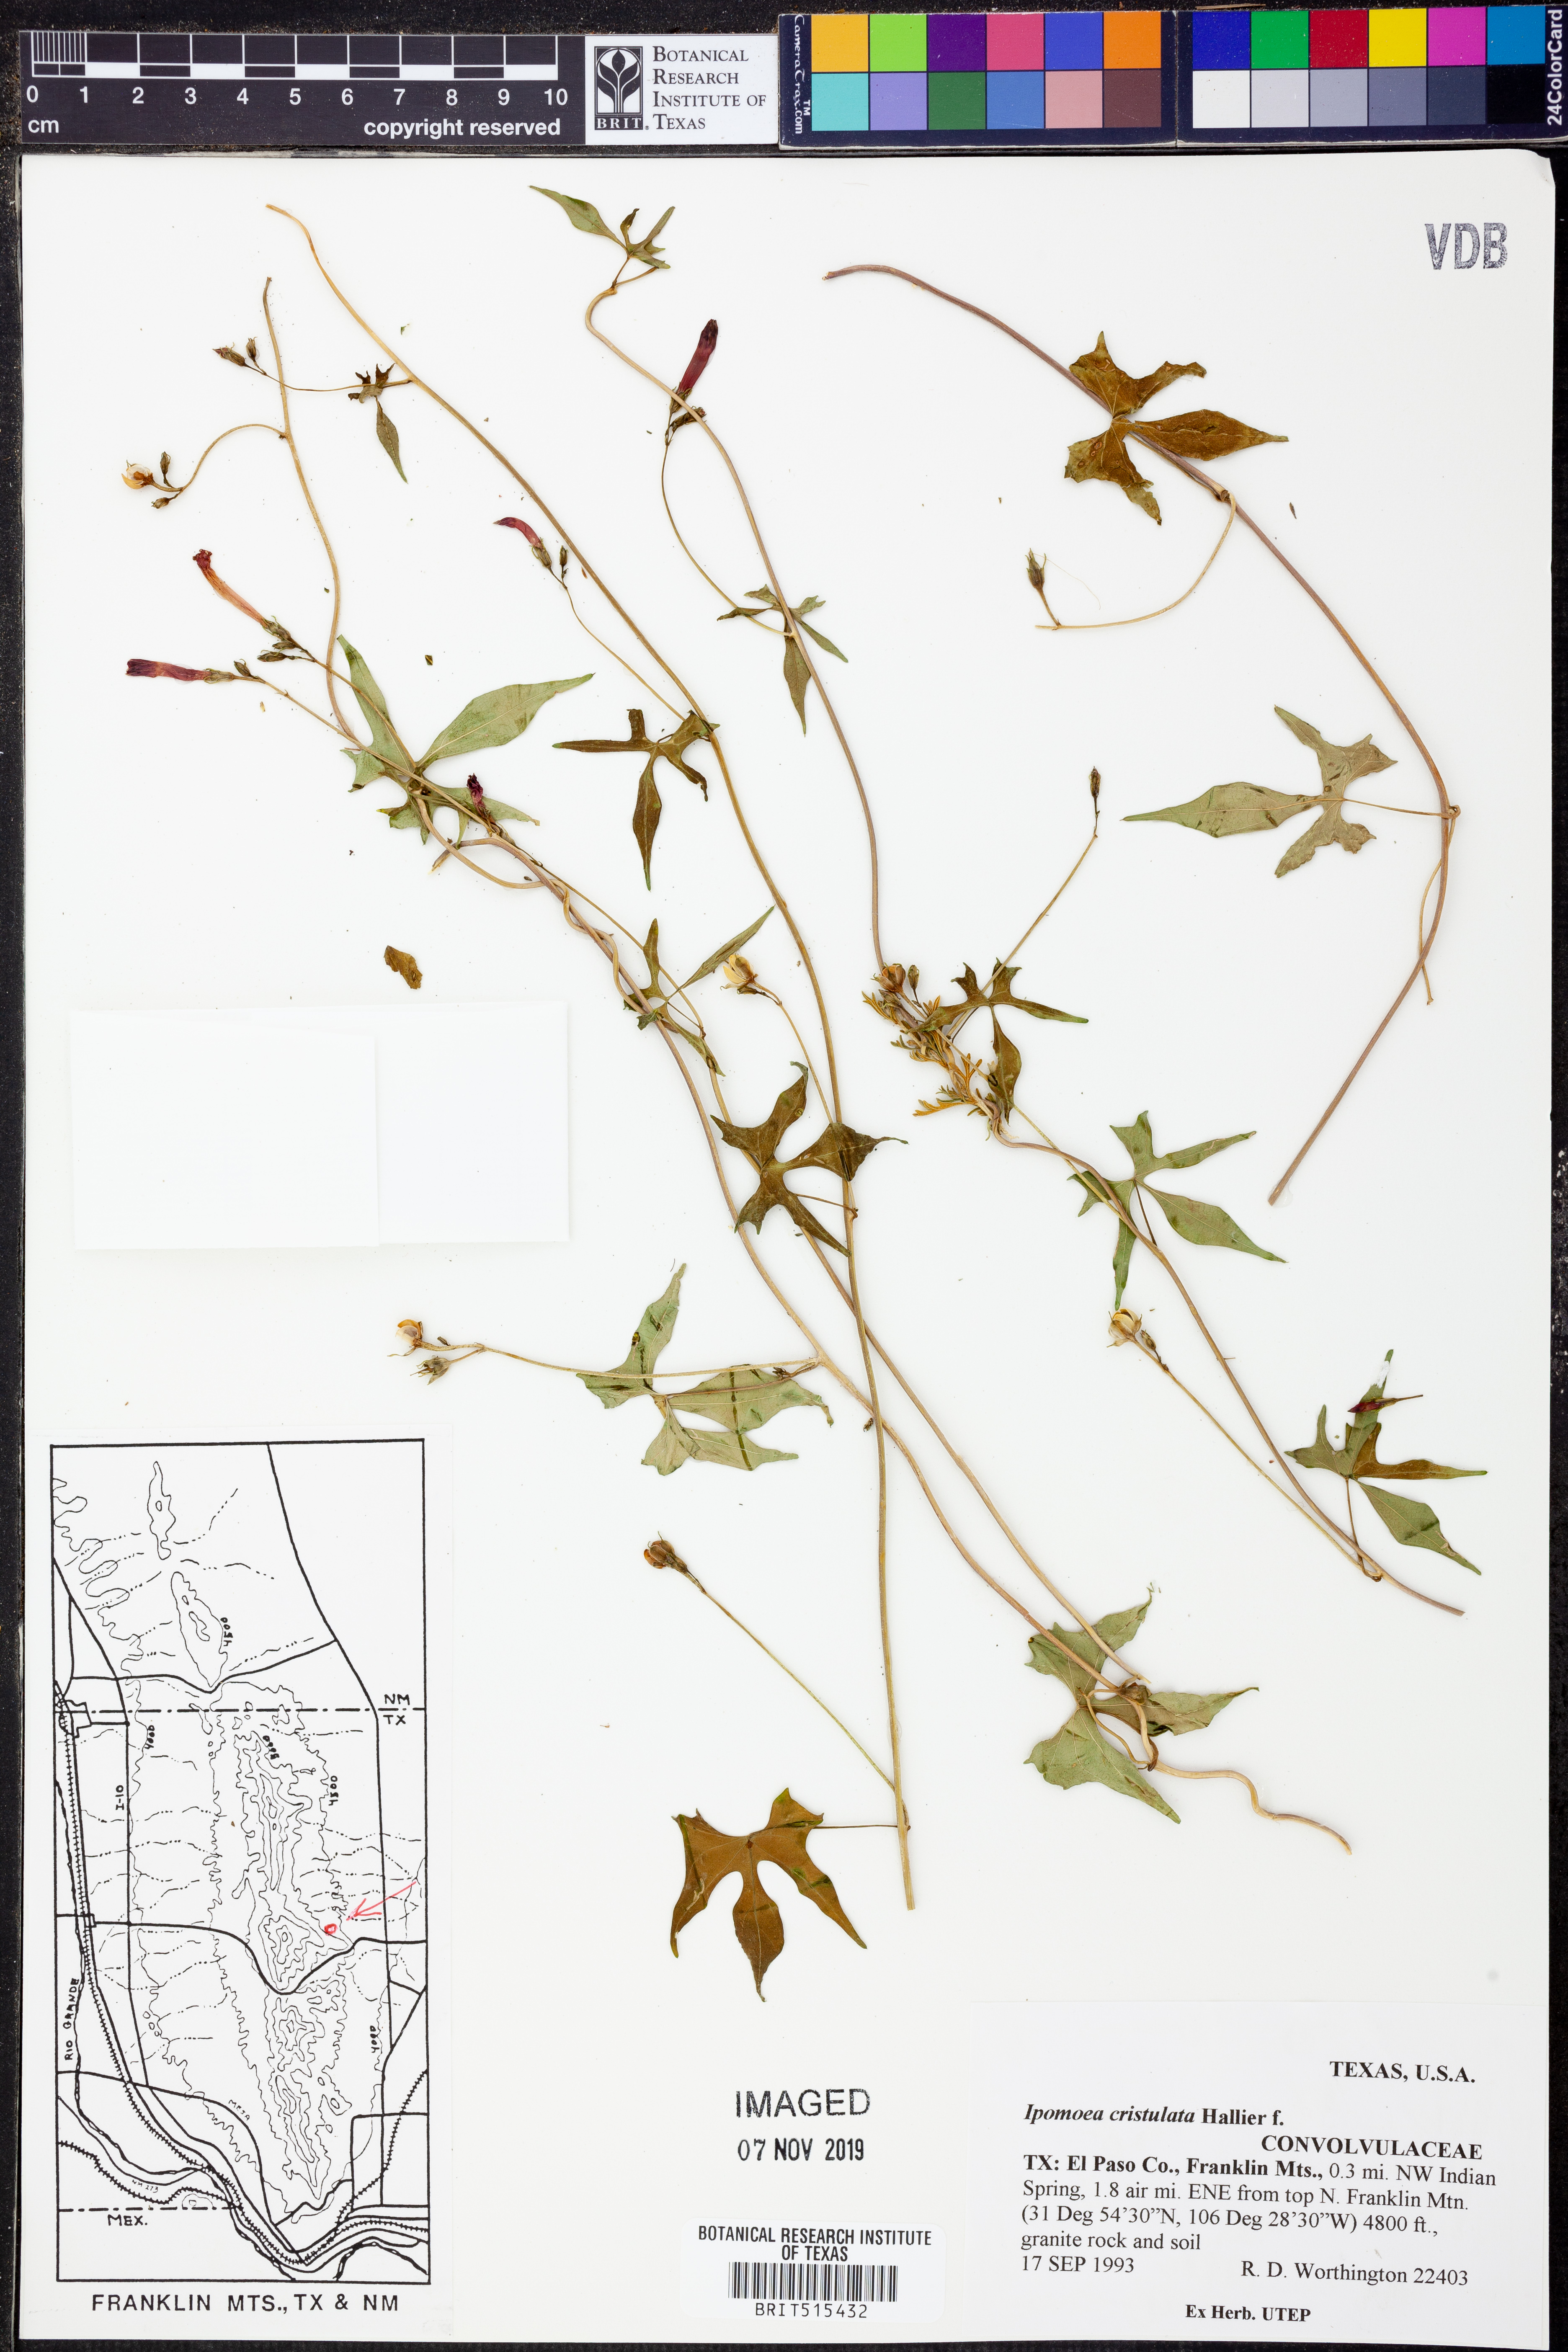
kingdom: Plantae
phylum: Tracheophyta
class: Magnoliopsida
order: Solanales
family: Convolvulaceae
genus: Ipomoea
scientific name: Ipomoea cristulata
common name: Trans-pecos morning-glory
